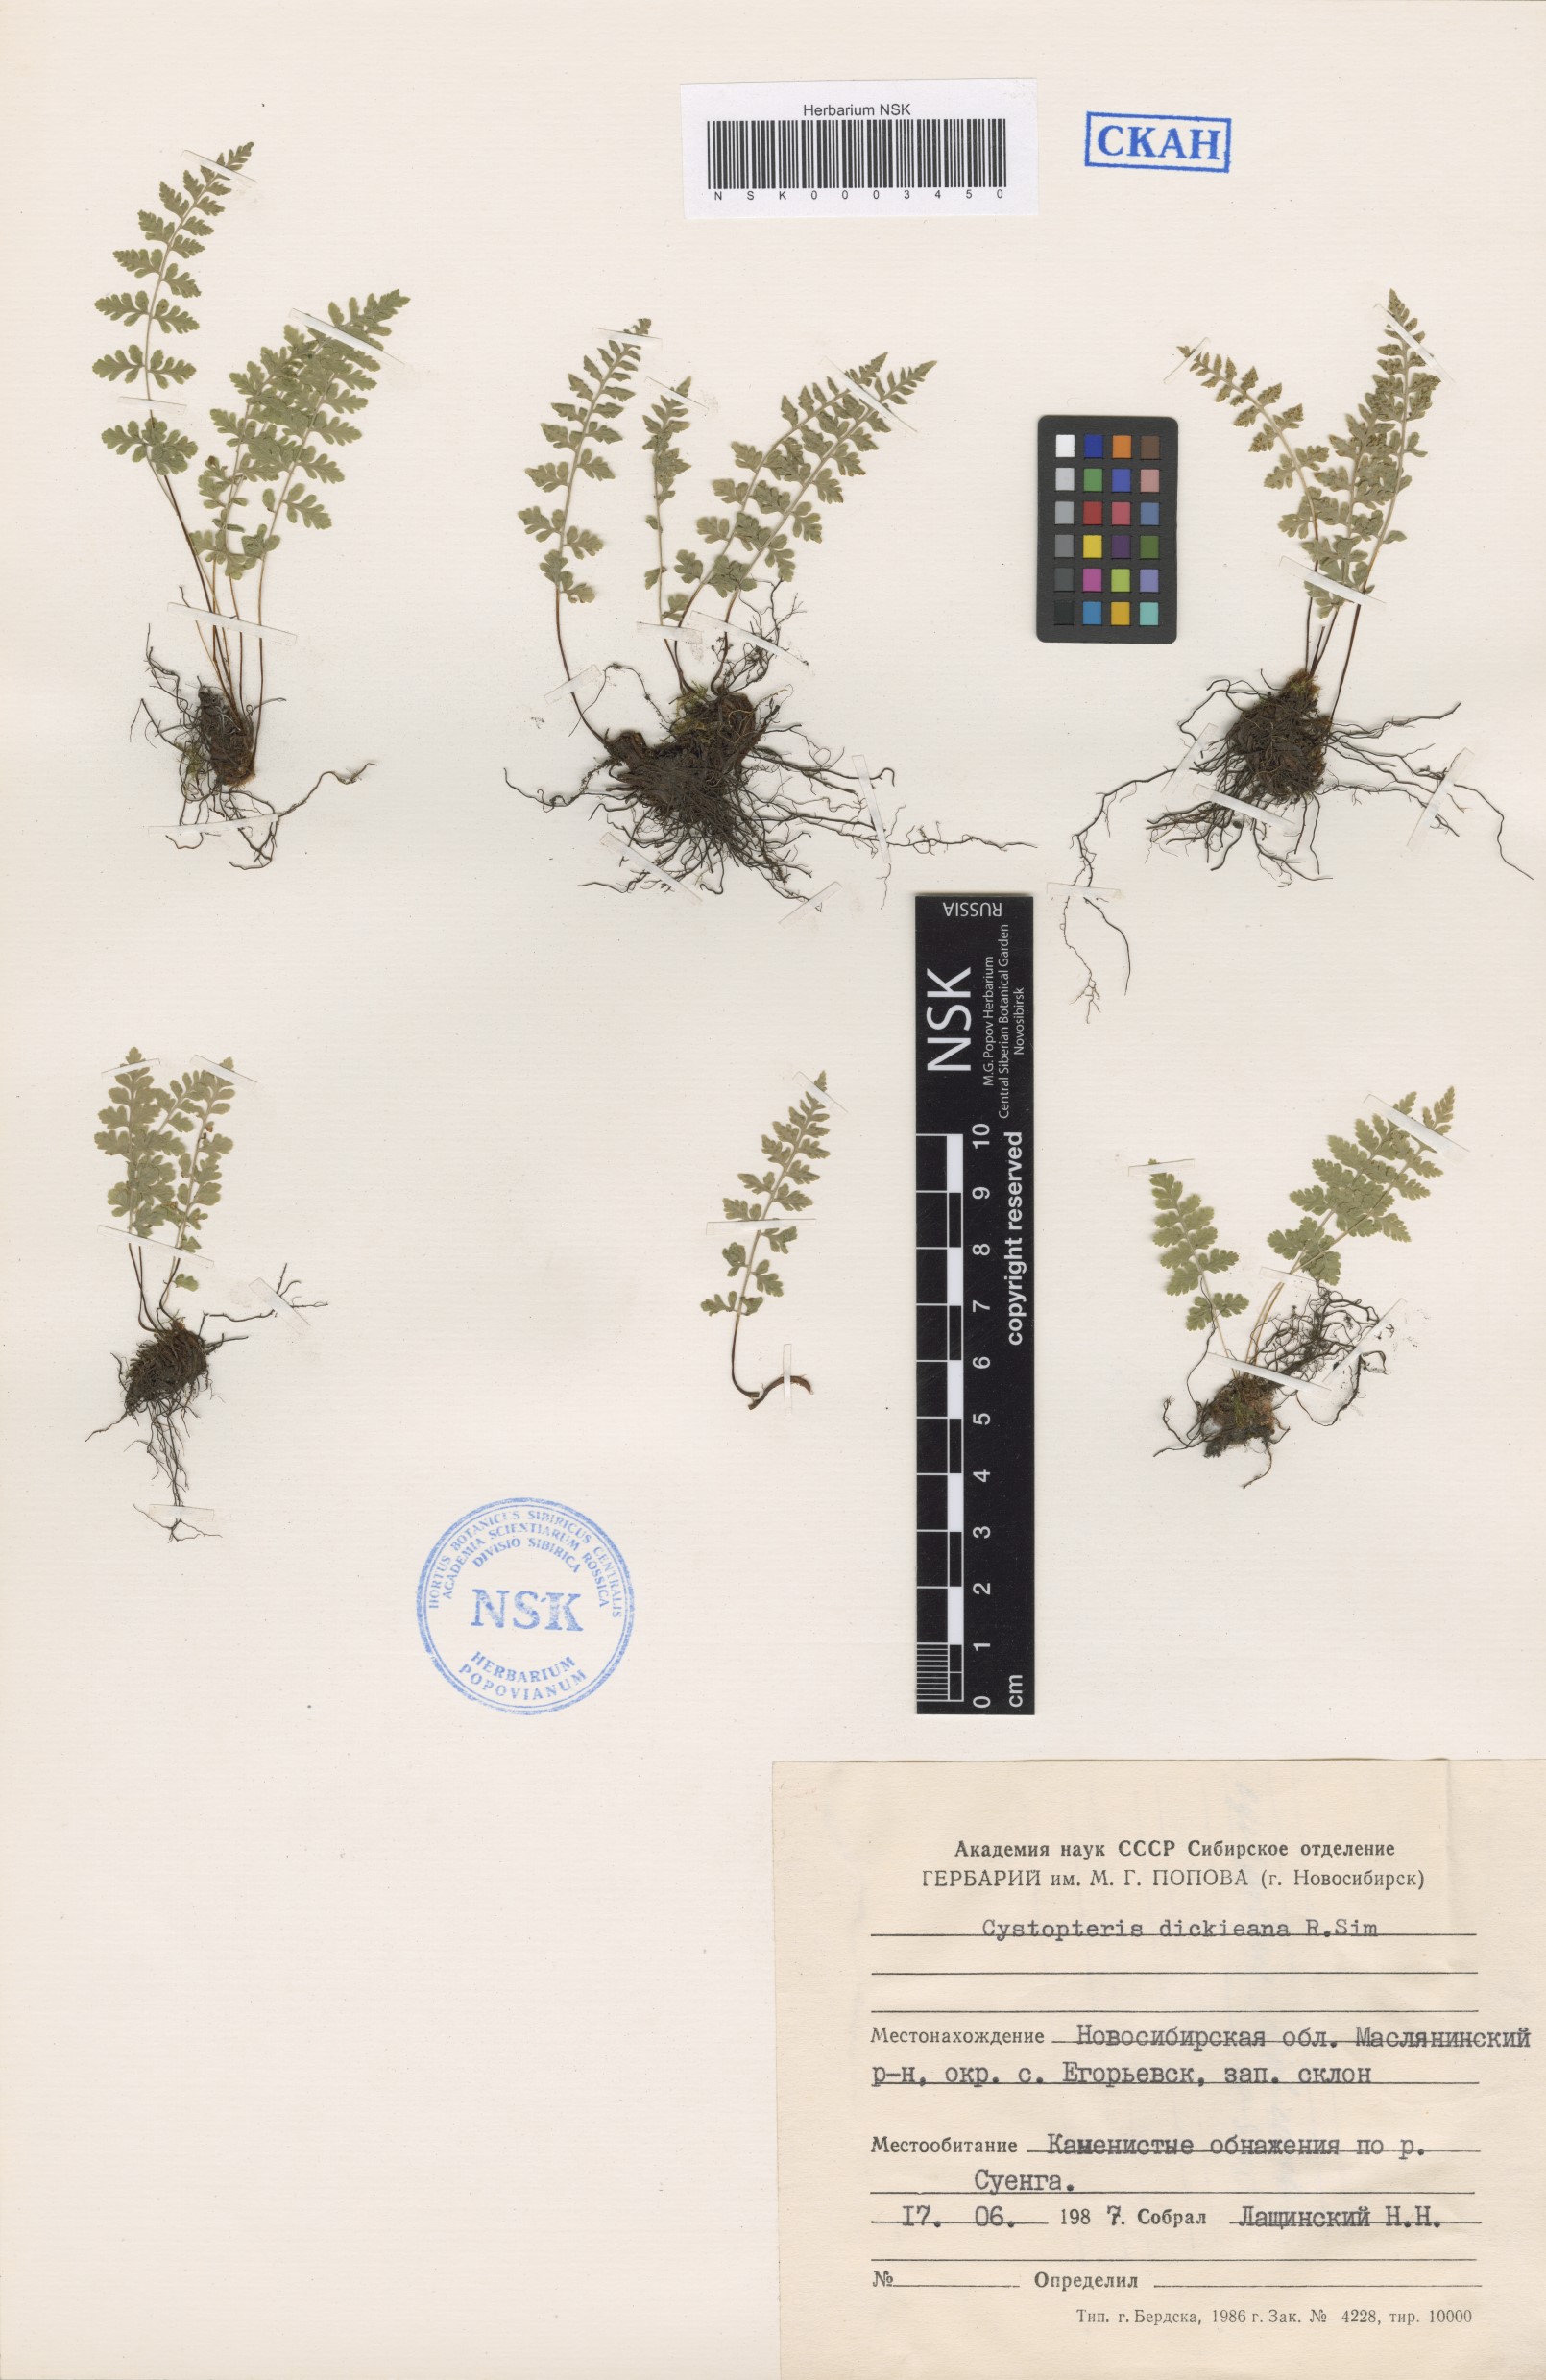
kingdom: Plantae
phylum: Tracheophyta
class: Polypodiopsida
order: Polypodiales
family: Cystopteridaceae
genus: Cystopteris
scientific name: Cystopteris dickieana
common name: Dickie's bladder-fern
